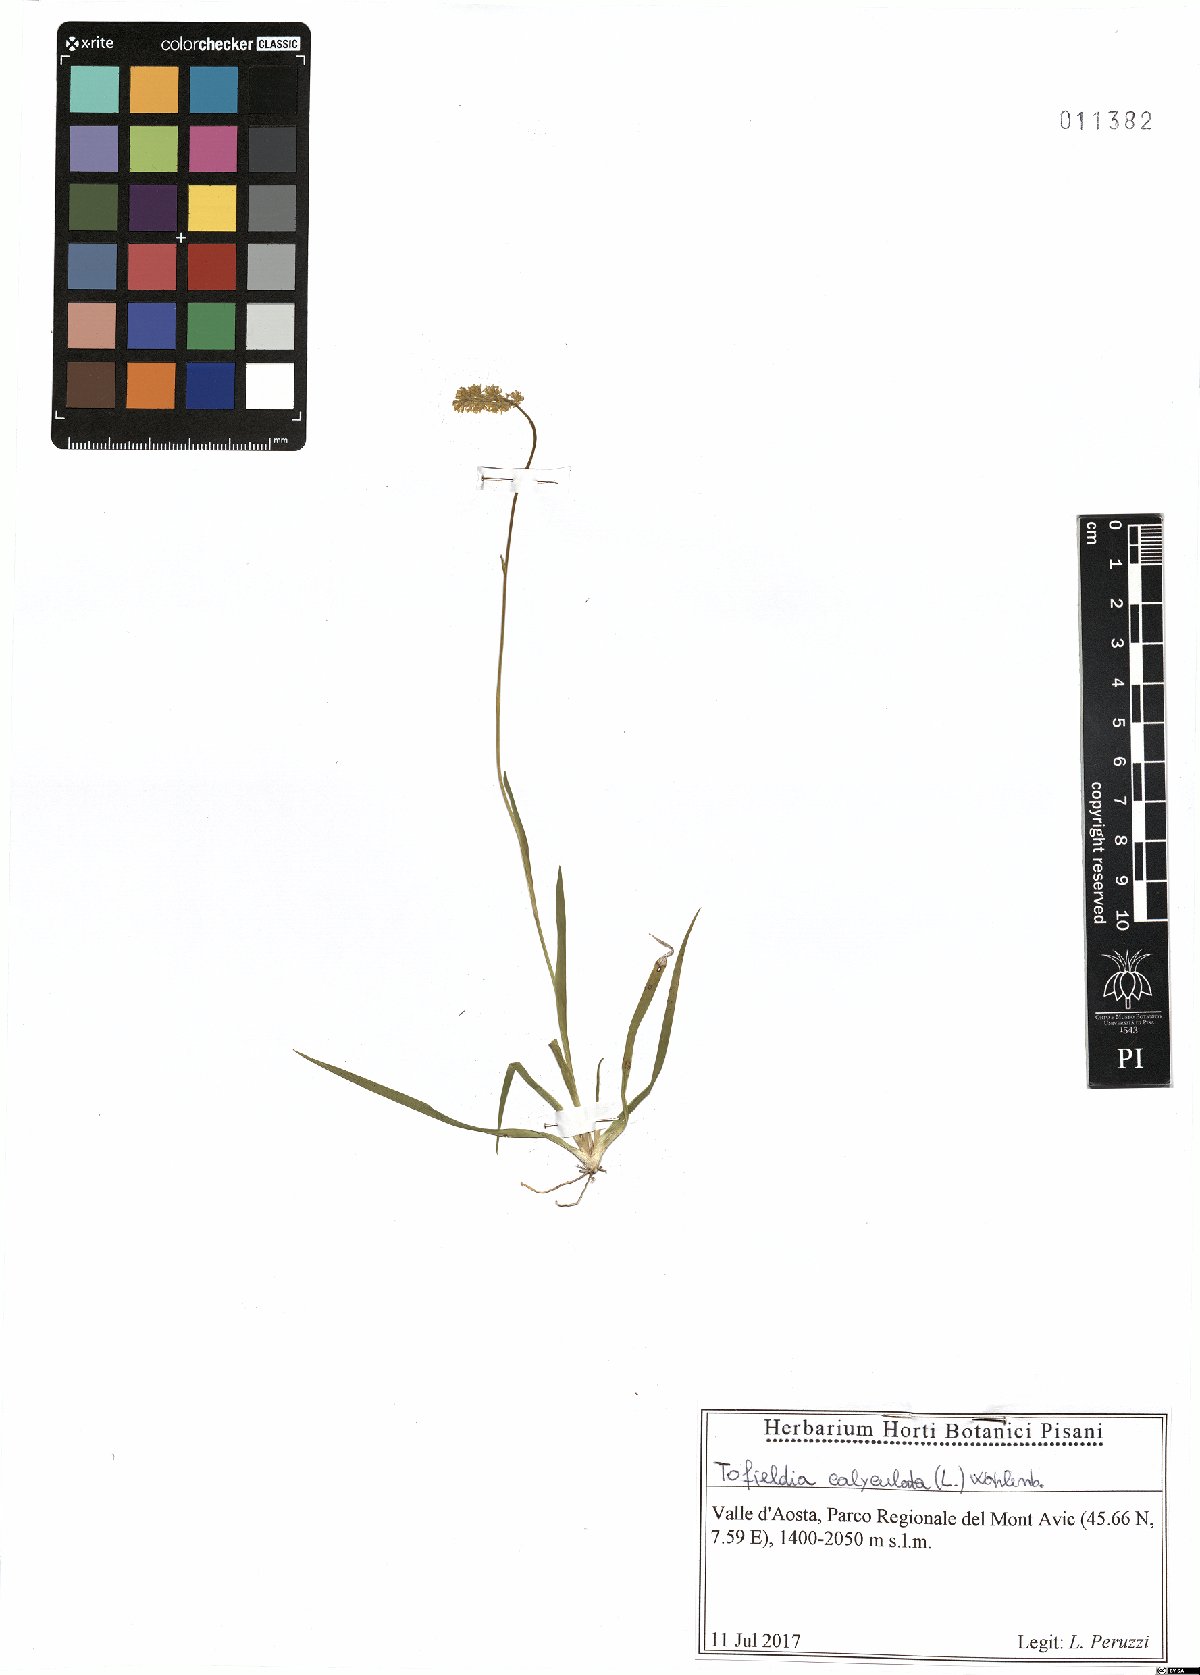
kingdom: Plantae
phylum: Tracheophyta
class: Liliopsida
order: Alismatales
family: Tofieldiaceae
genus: Tofieldia
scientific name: Tofieldia calyculata
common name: German-asphodel
